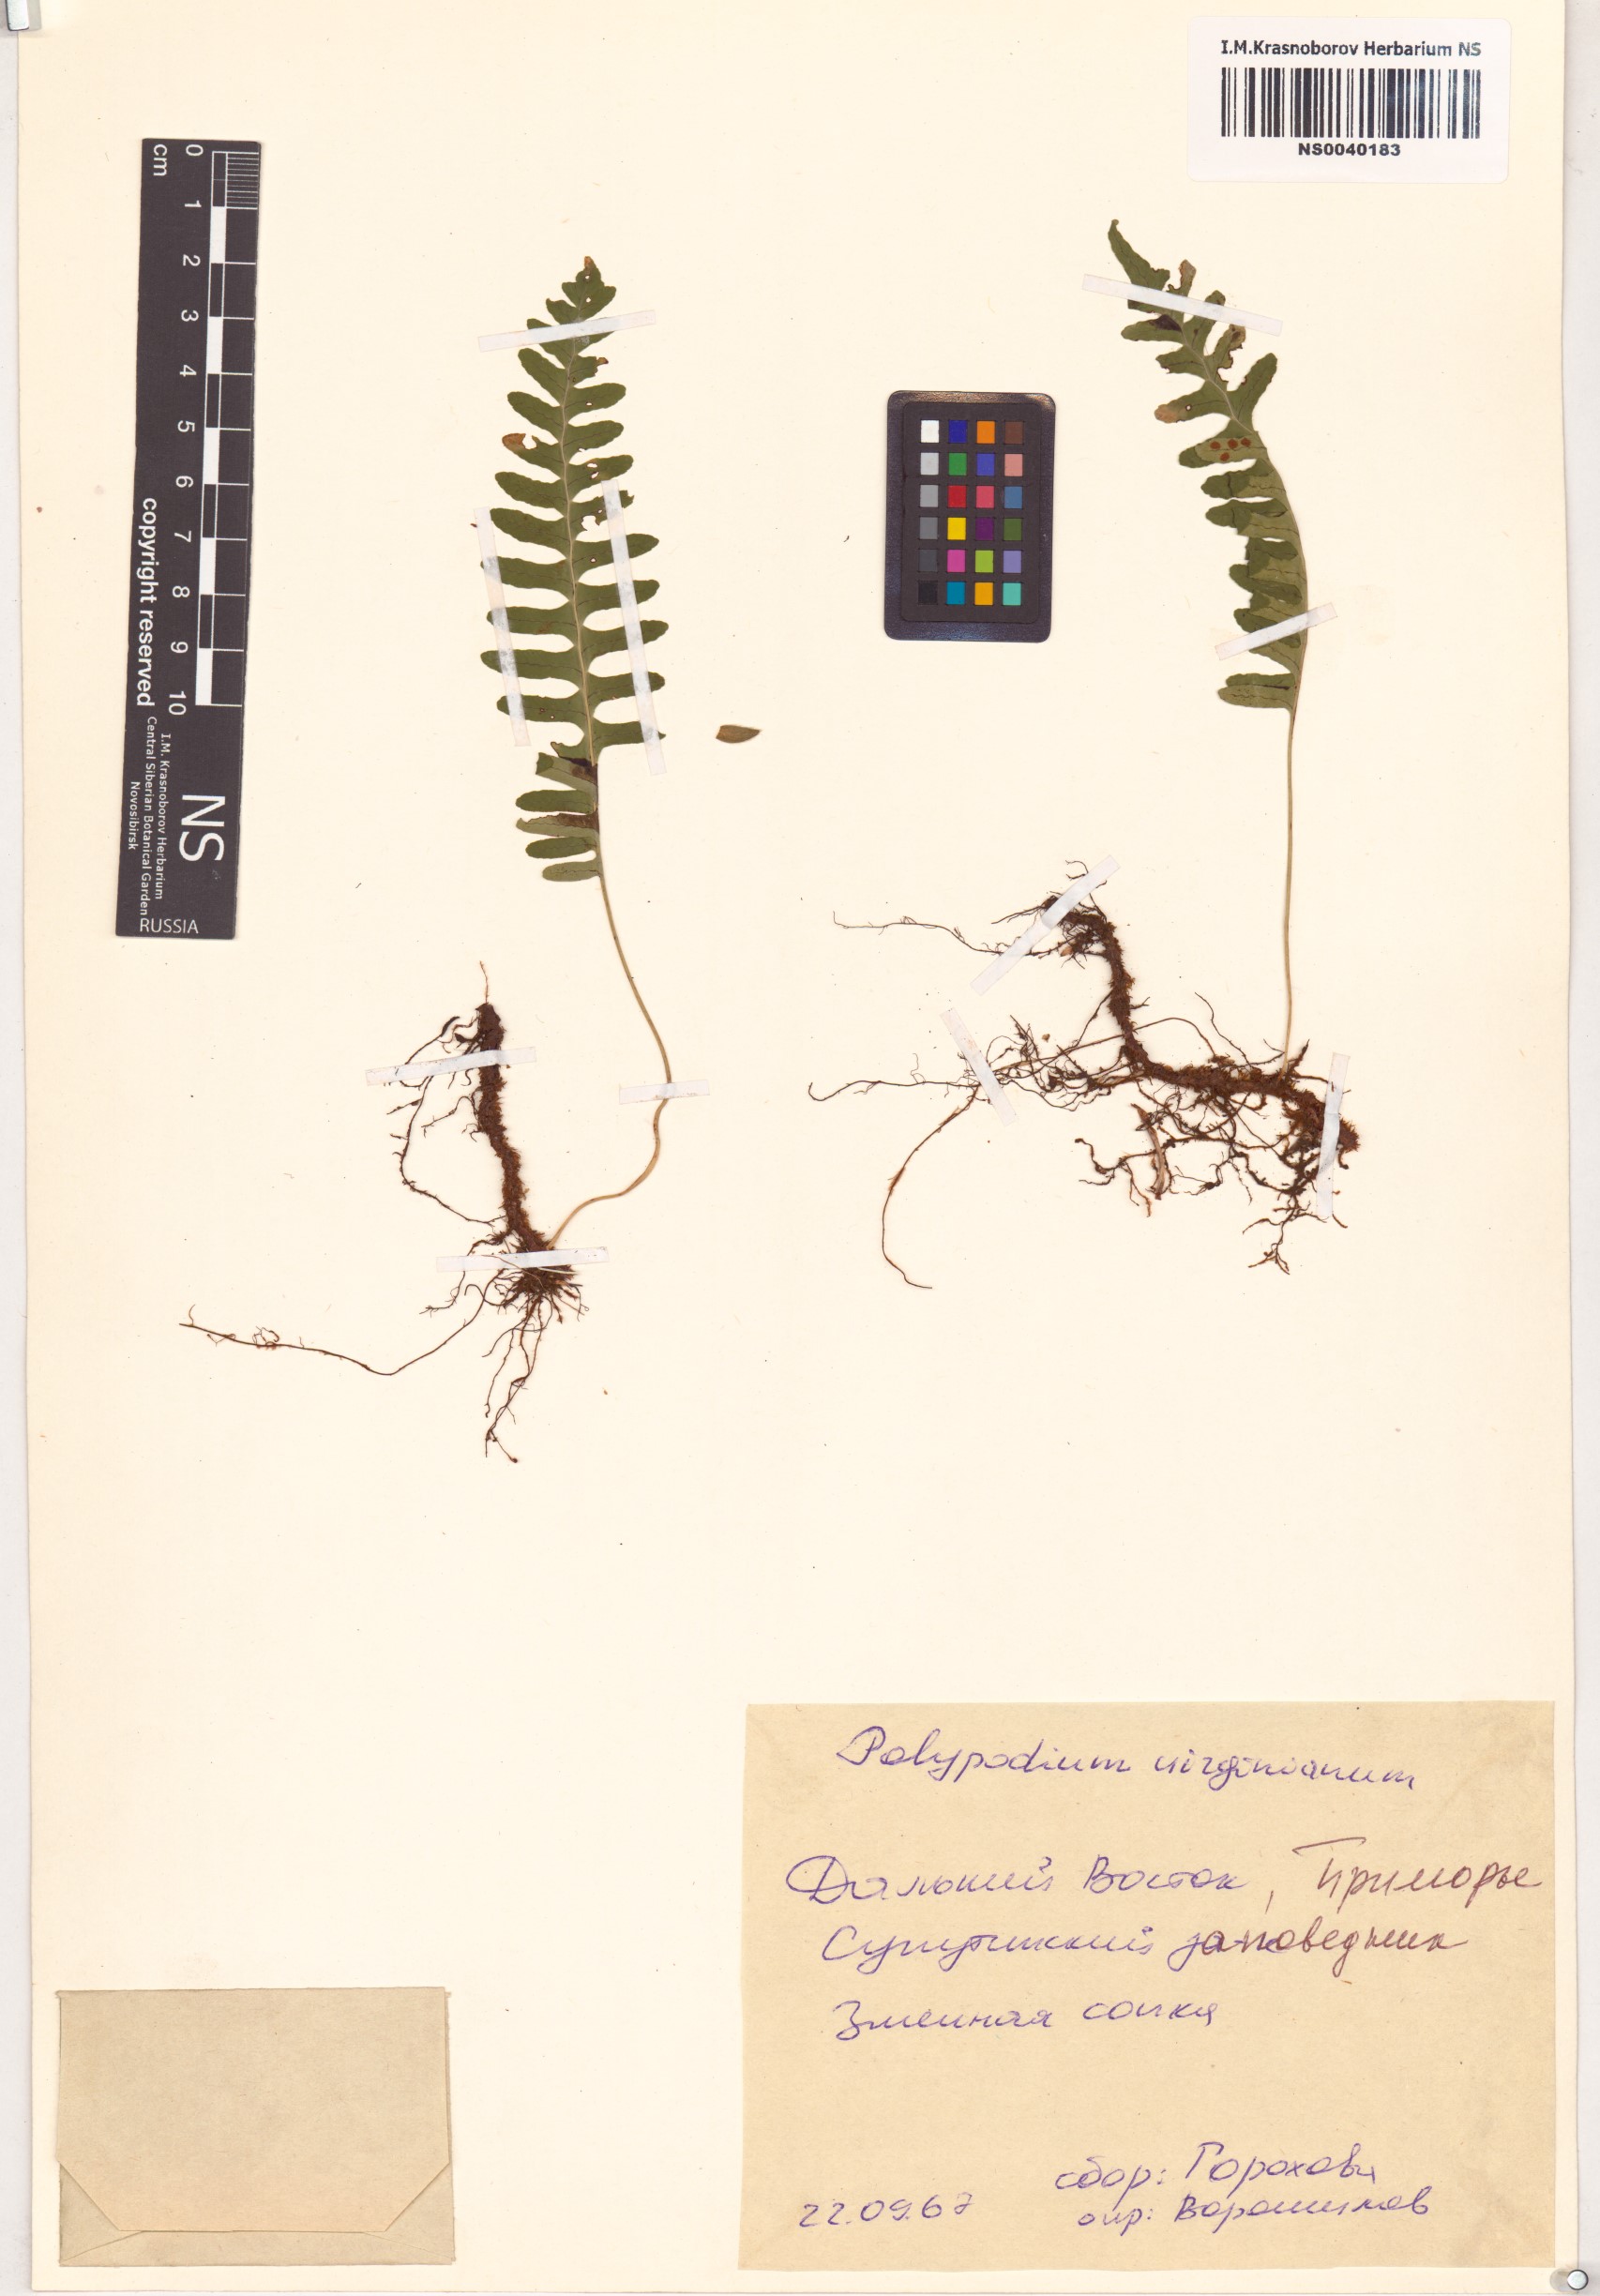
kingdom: Plantae
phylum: Tracheophyta
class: Polypodiopsida
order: Polypodiales
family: Polypodiaceae
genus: Polypodium
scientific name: Polypodium virginianum
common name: American wall fern
